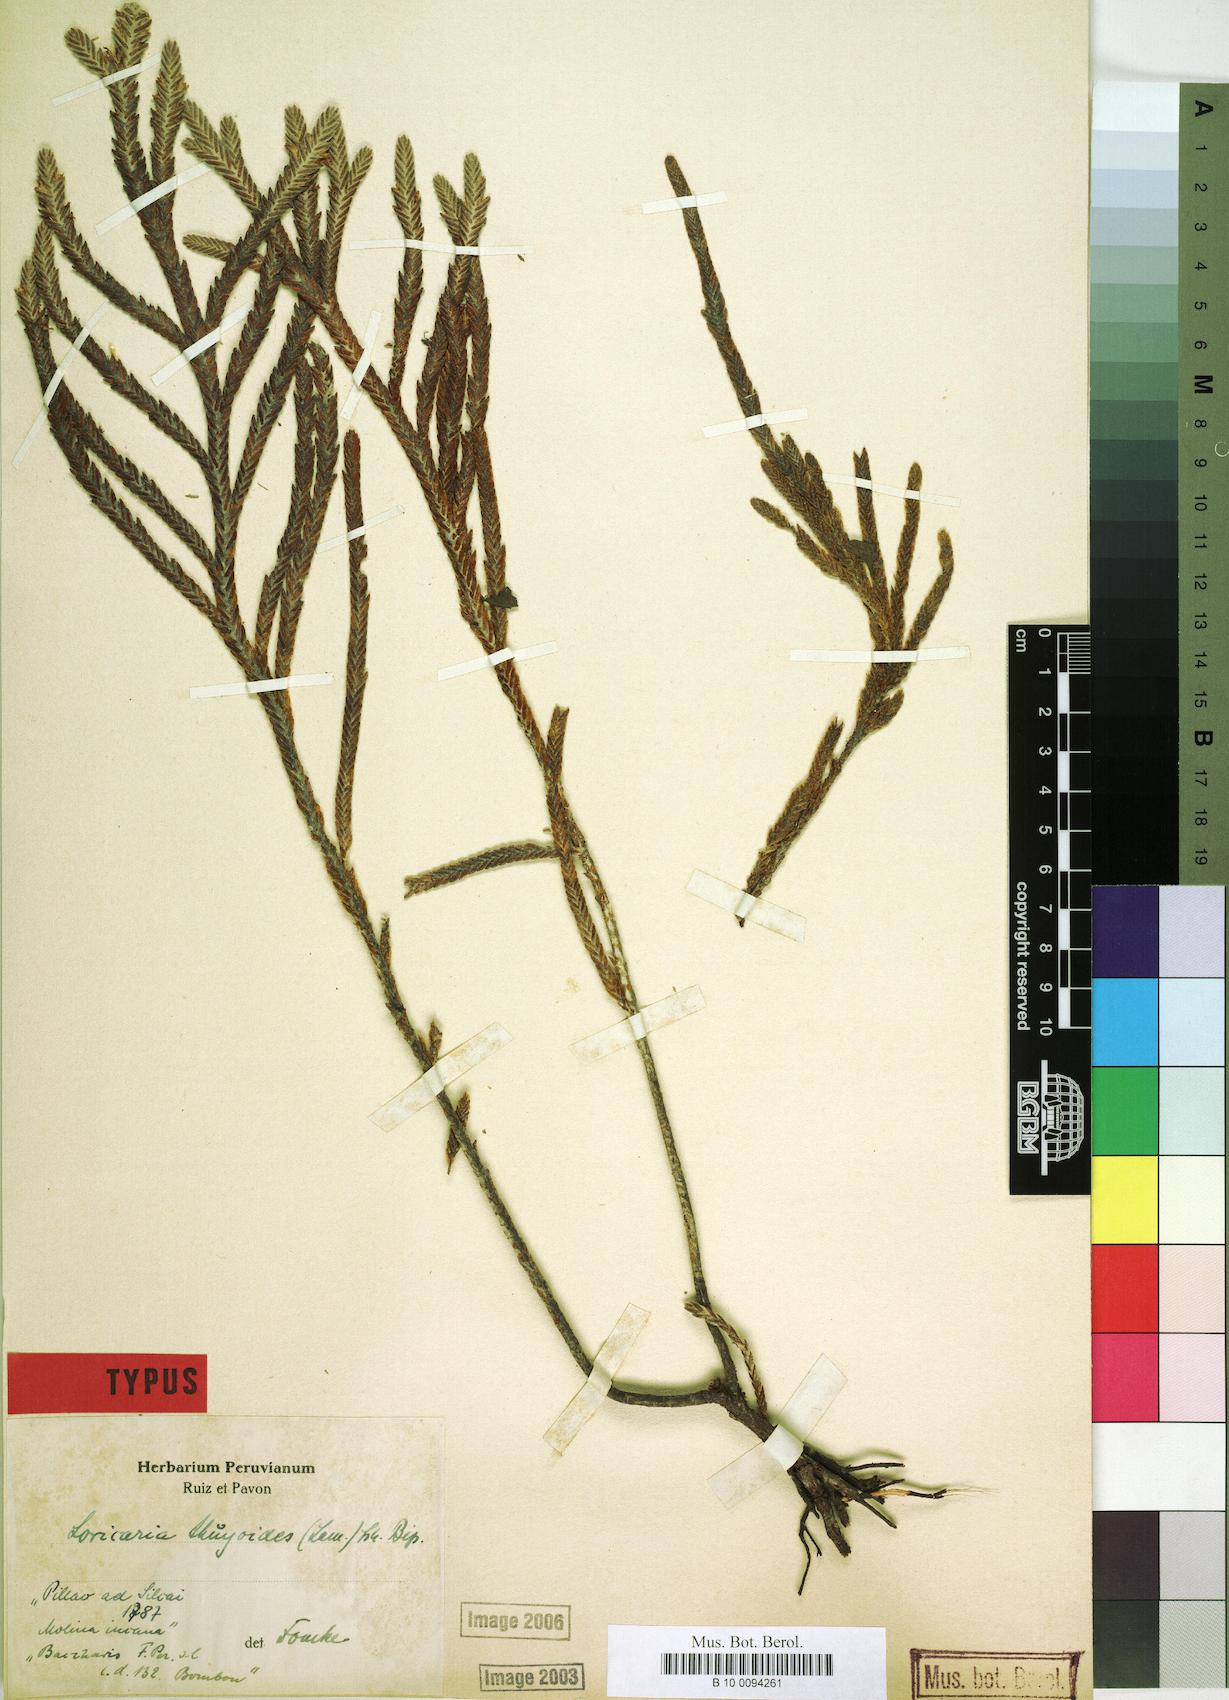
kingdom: Plantae
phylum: Tracheophyta
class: Magnoliopsida
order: Asterales
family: Asteraceae
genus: Andicolea
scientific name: Andicolea thuyoides
